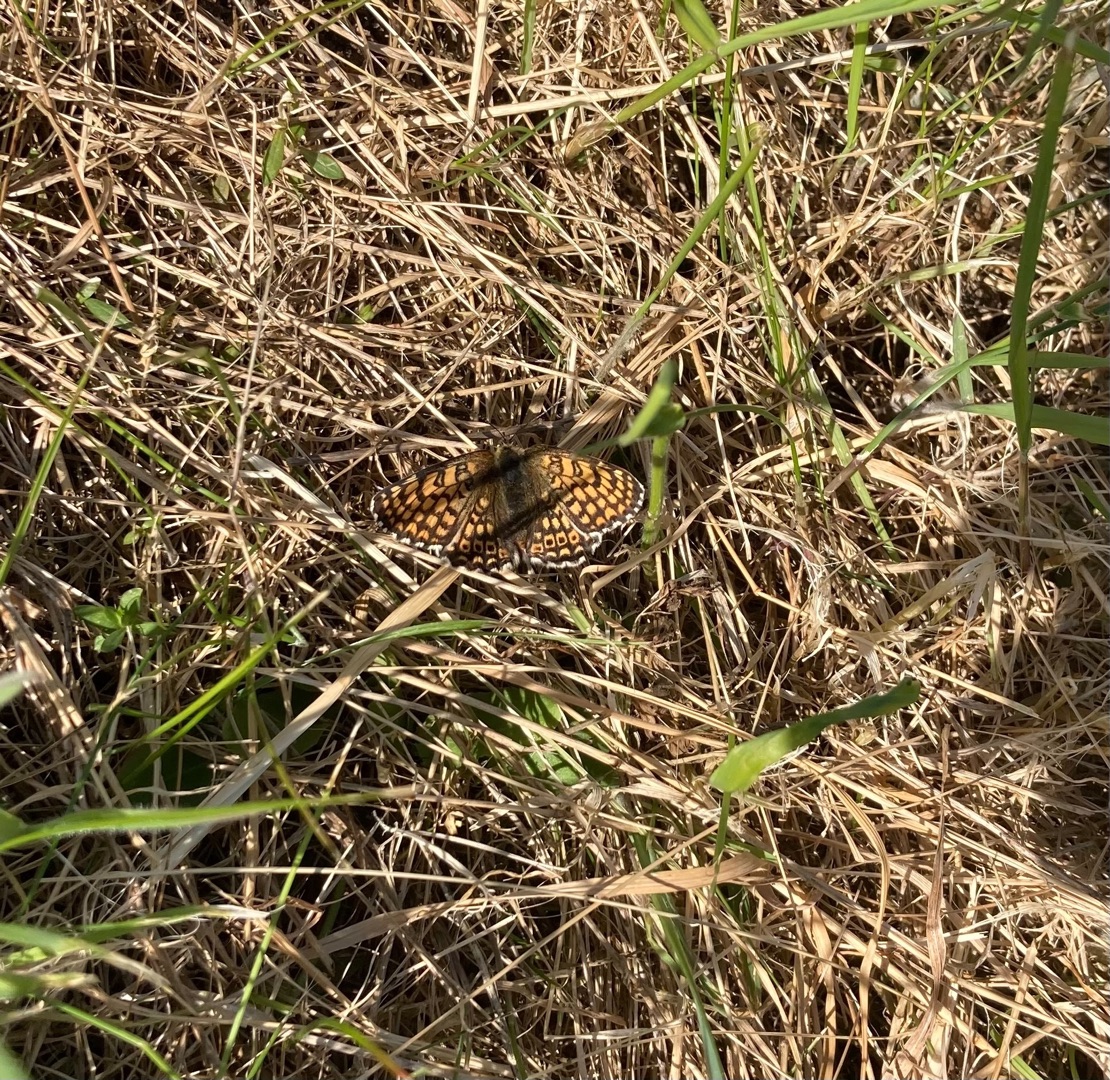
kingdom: Animalia
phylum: Arthropoda
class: Insecta
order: Lepidoptera
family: Nymphalidae
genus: Melitaea
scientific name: Melitaea cinxia
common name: Okkergul pletvinge
